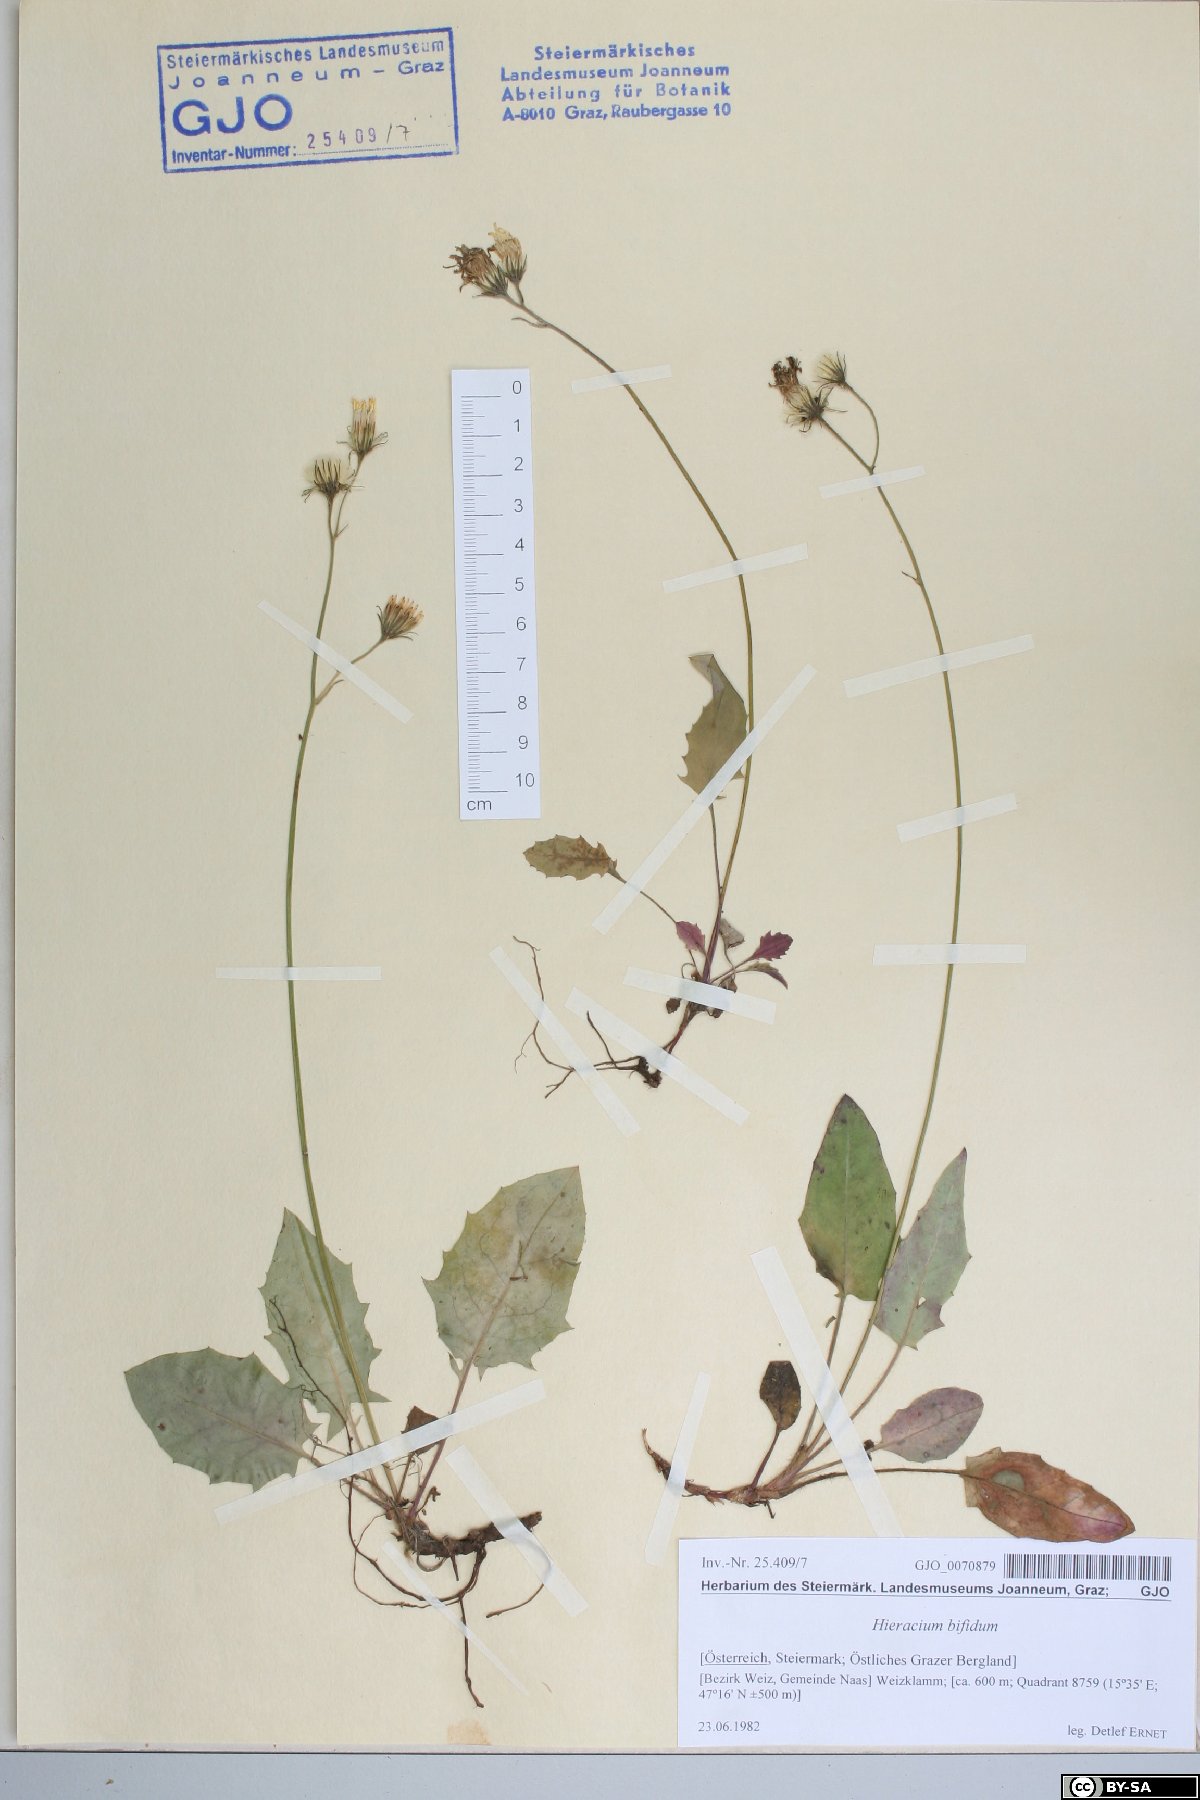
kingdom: Plantae
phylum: Tracheophyta
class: Magnoliopsida
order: Asterales
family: Asteraceae
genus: Hieracium
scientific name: Hieracium bifidum
